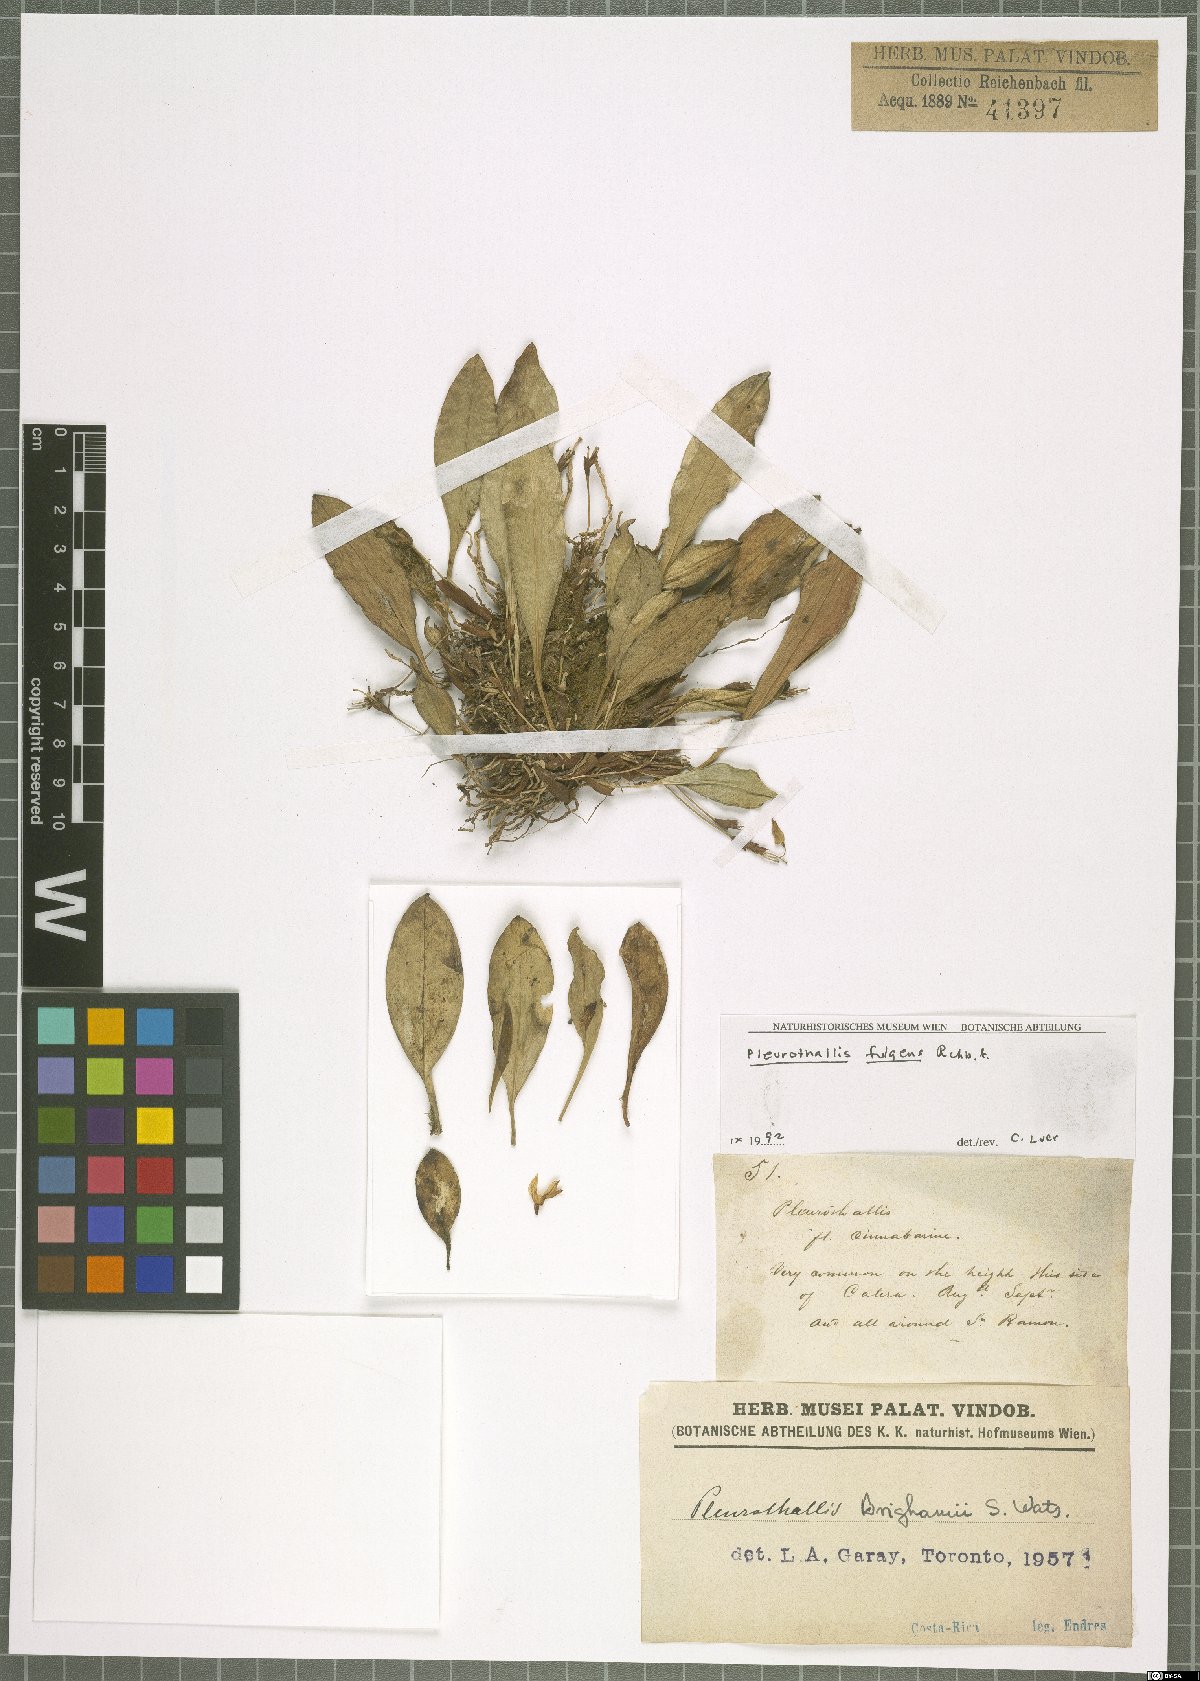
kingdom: Plantae
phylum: Tracheophyta
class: Liliopsida
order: Asparagales
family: Orchidaceae
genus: Specklinia
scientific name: Specklinia fulgens
